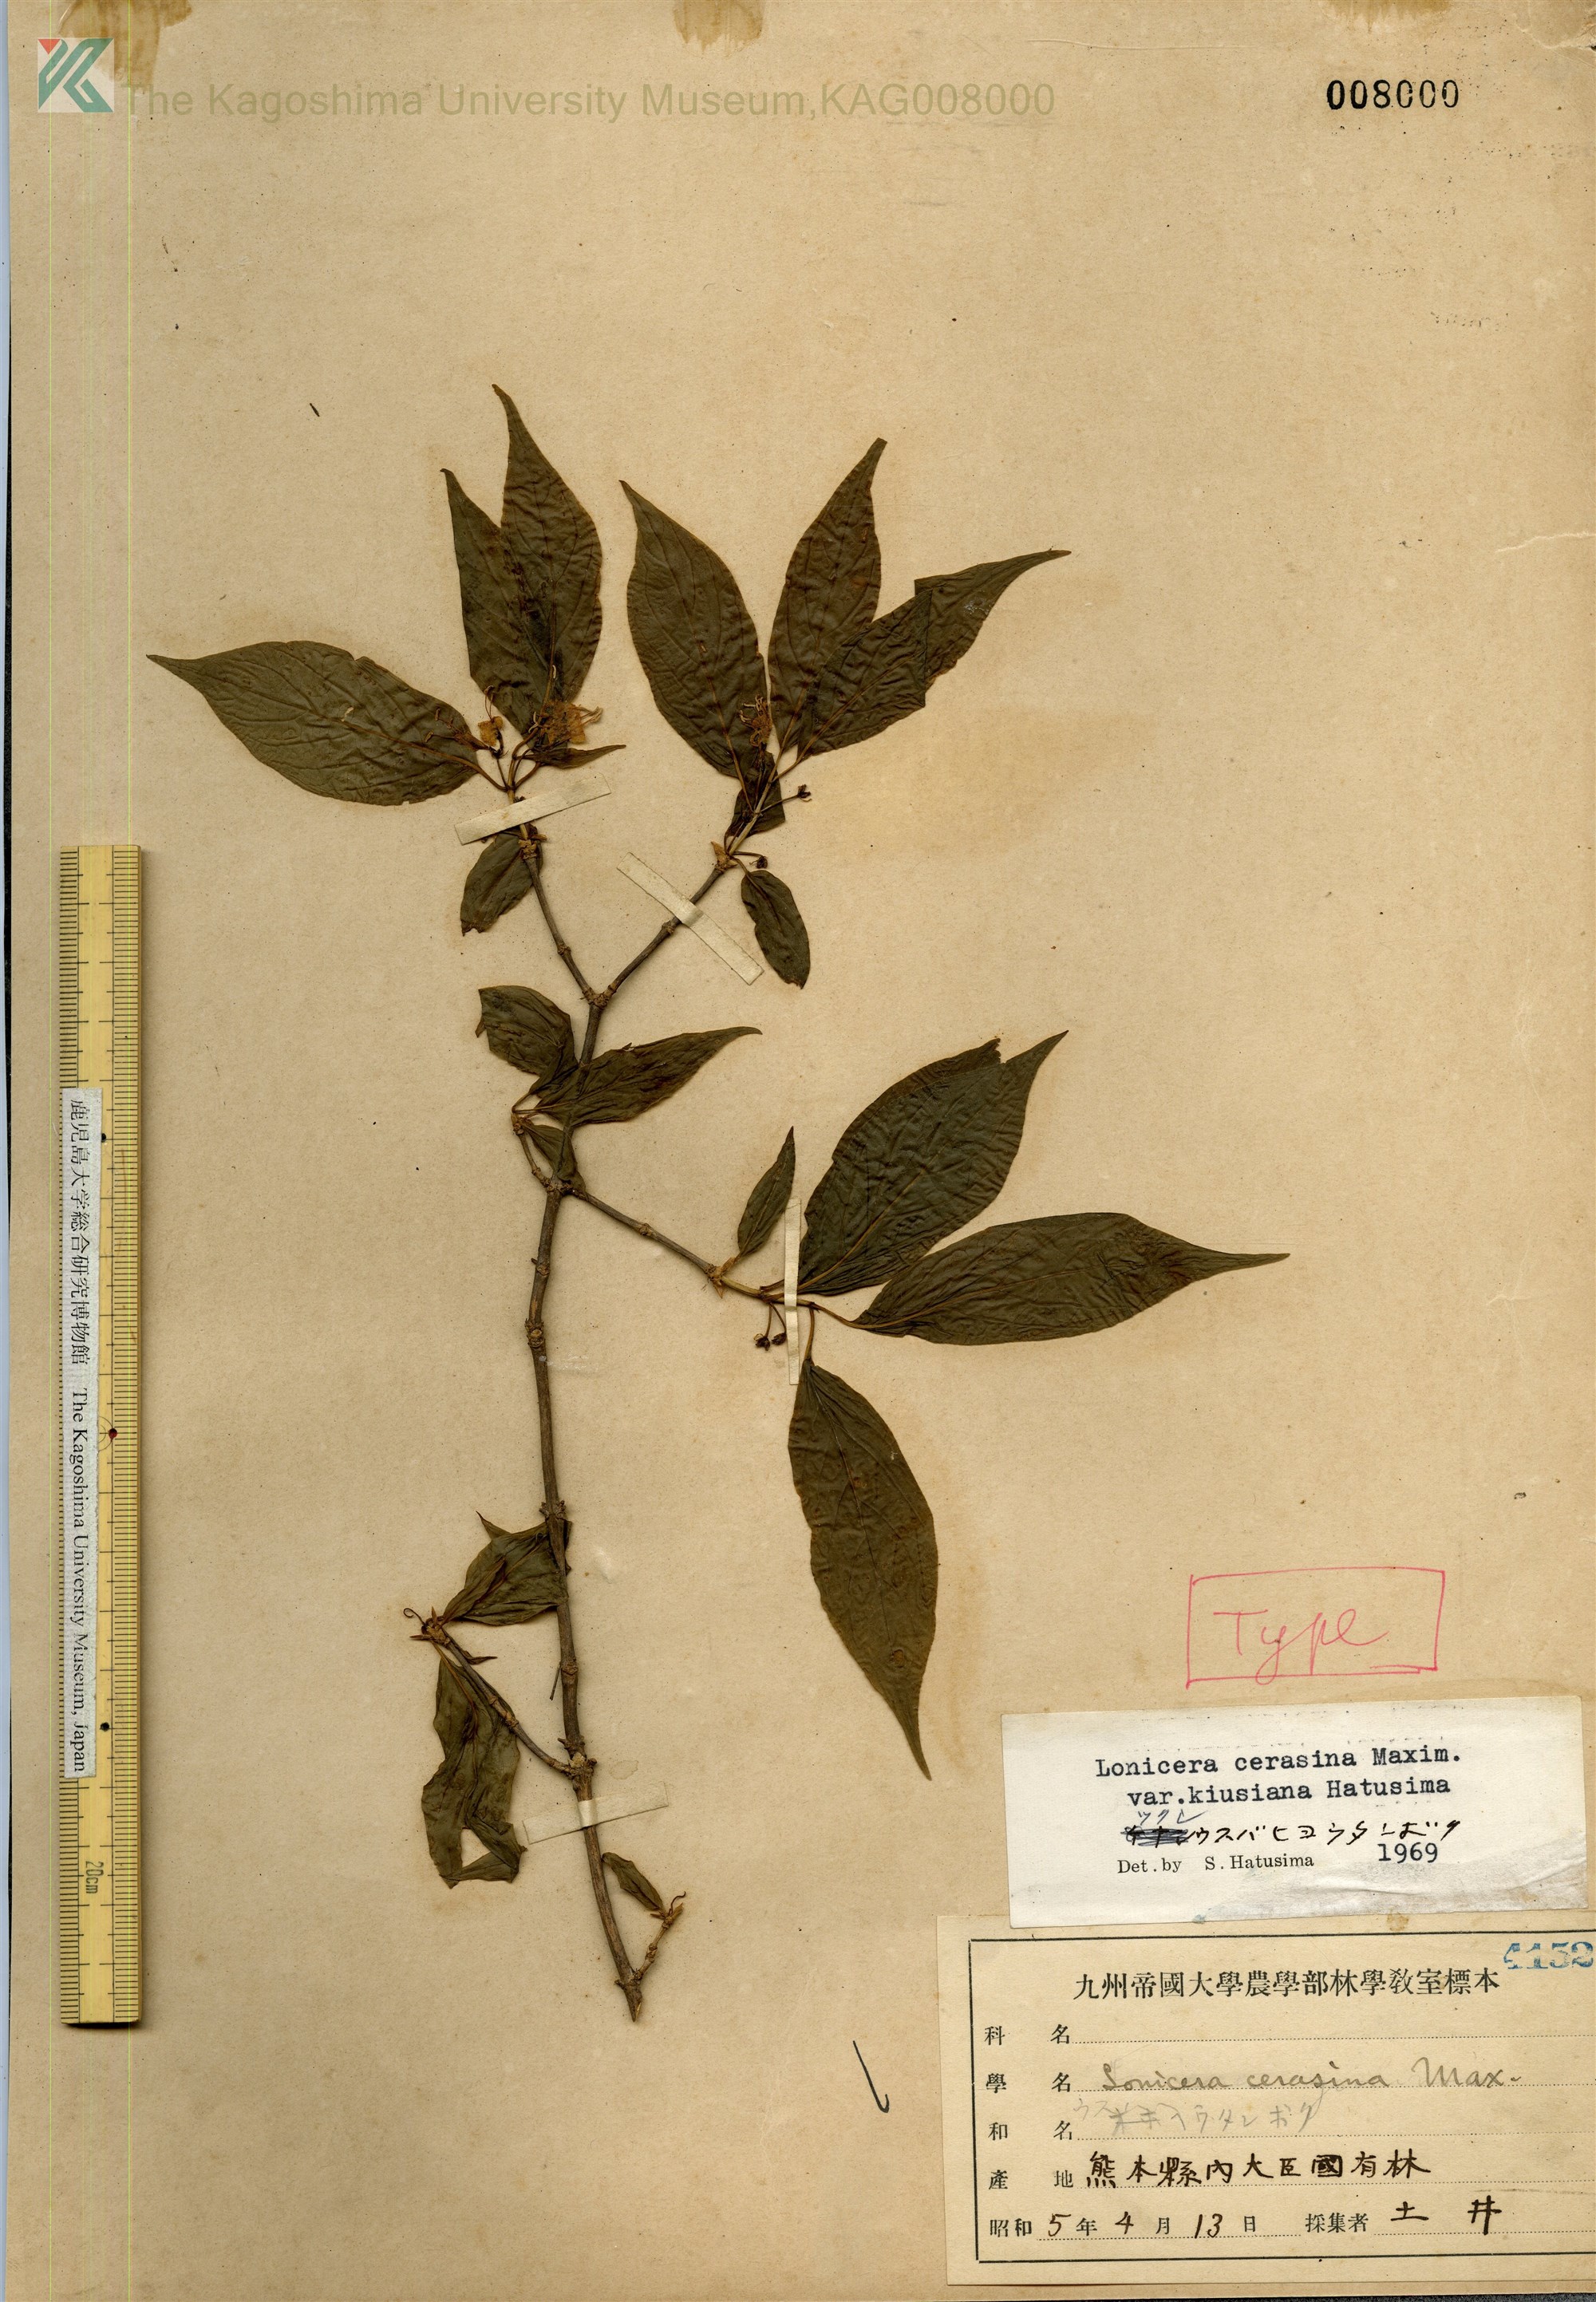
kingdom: Plantae
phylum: Tracheophyta
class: Magnoliopsida
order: Dipsacales
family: Caprifoliaceae
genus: Lonicera
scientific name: Lonicera cerasina
